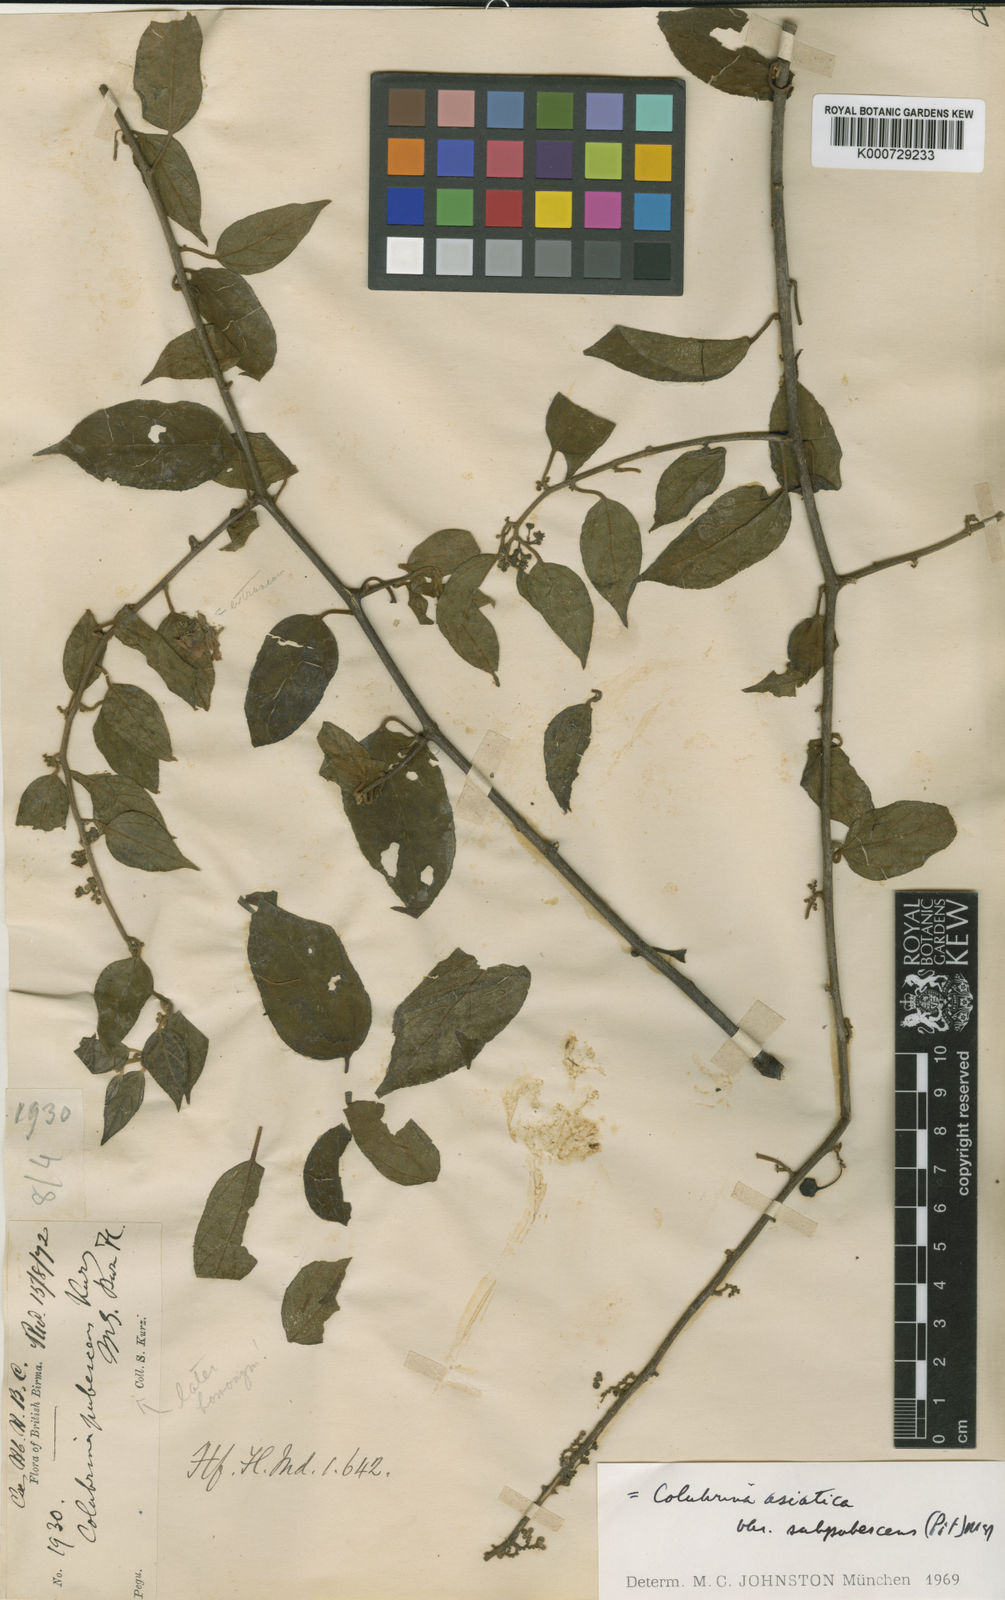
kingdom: Plantae
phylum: Tracheophyta
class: Magnoliopsida
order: Rosales
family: Rhamnaceae
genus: Colubrina
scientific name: Colubrina javanica
